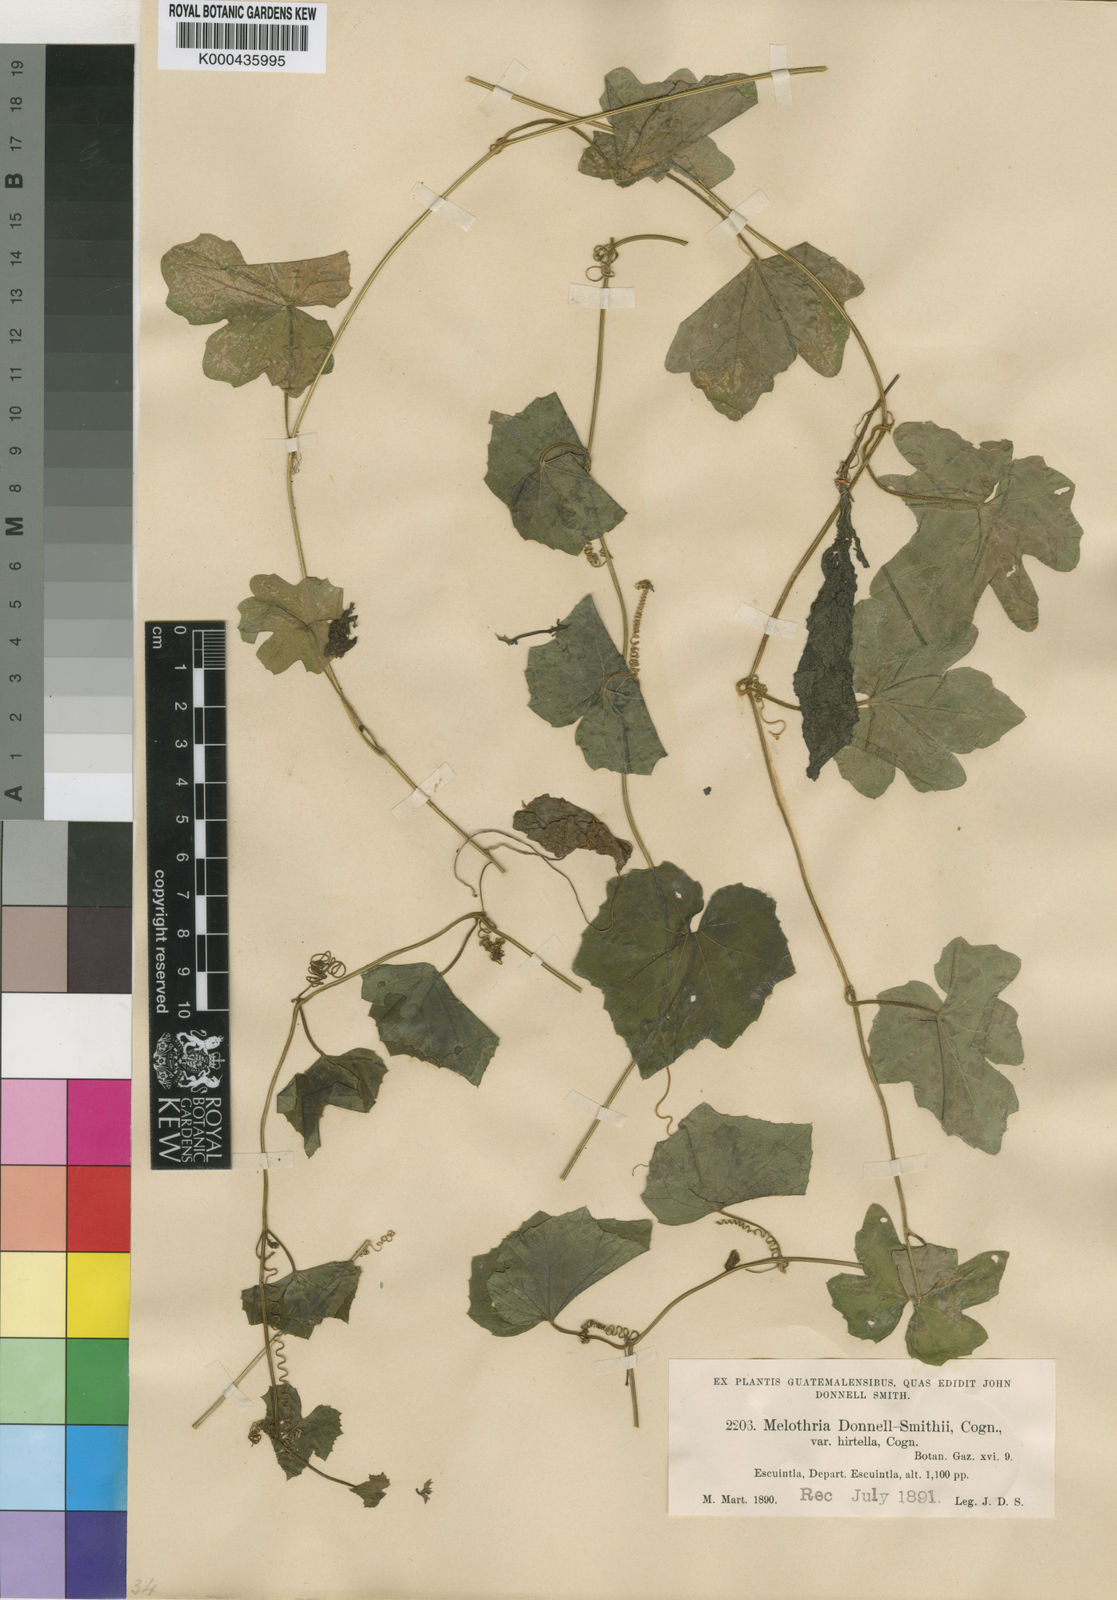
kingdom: Plantae
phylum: Tracheophyta
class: Magnoliopsida
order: Cucurbitales
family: Cucurbitaceae
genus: Melothria
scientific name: Melothria scabra
